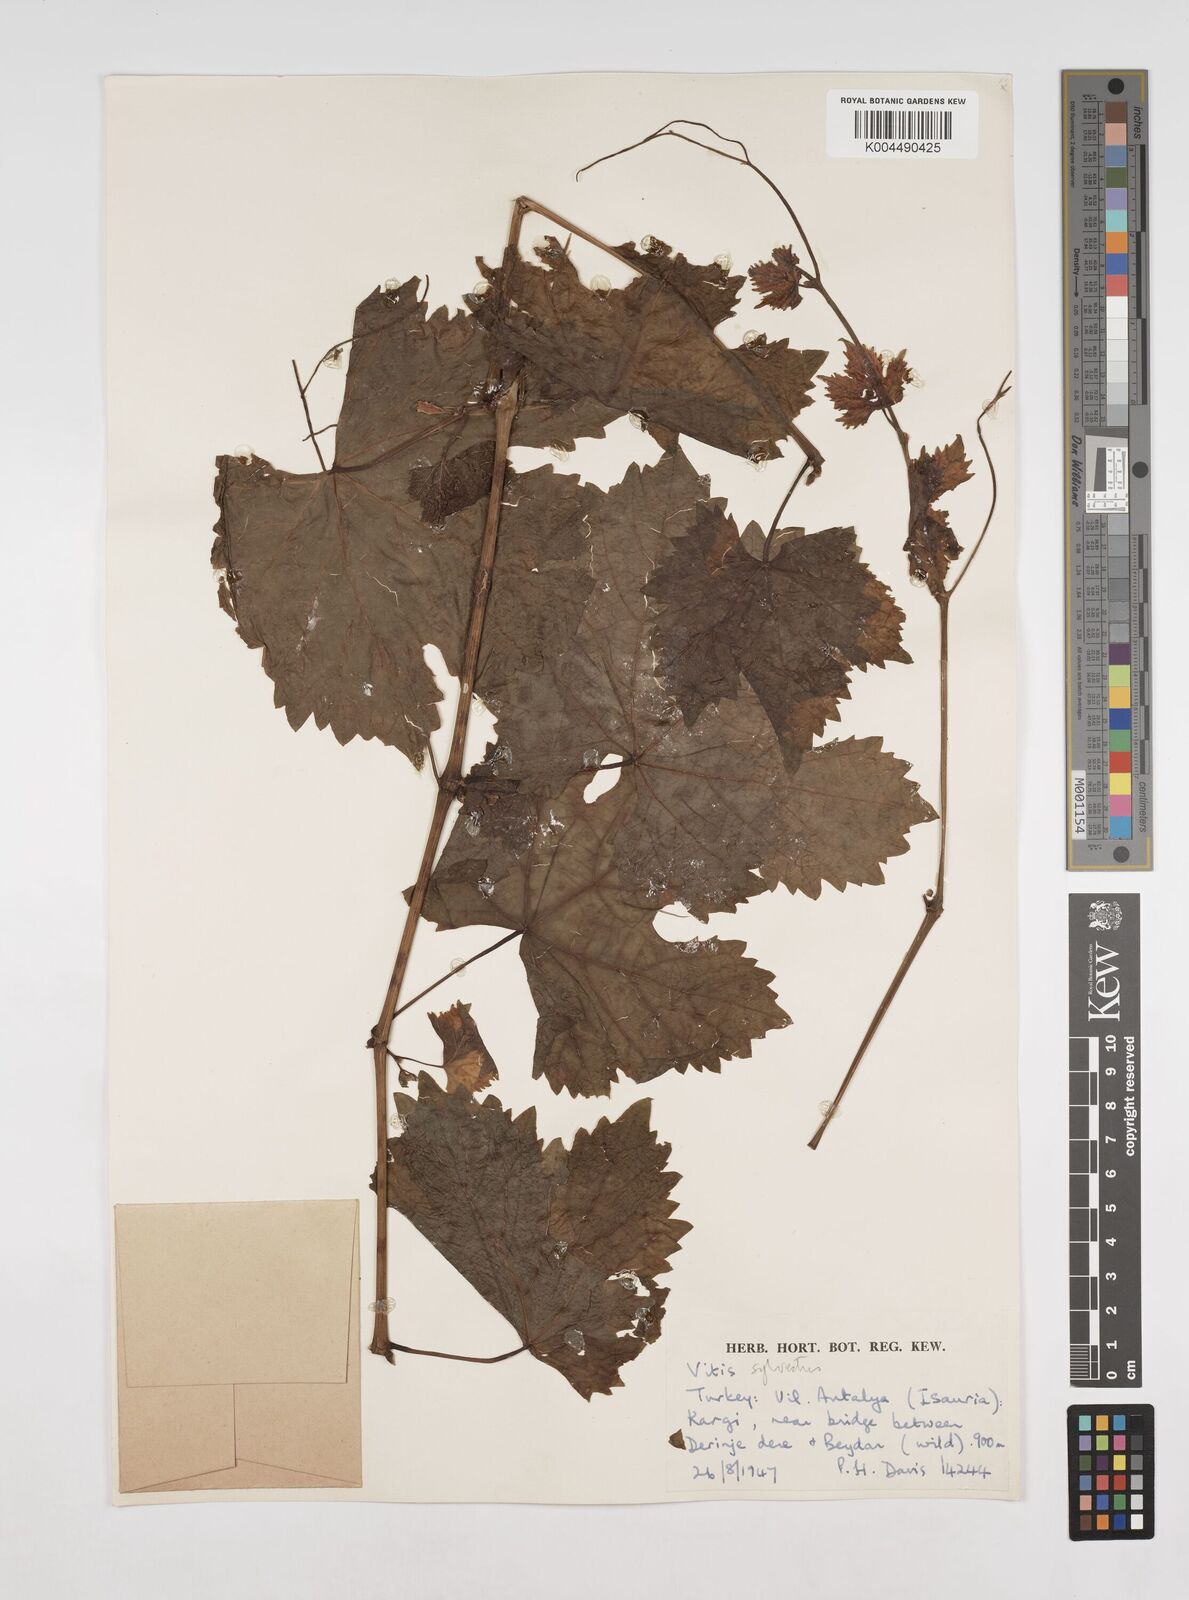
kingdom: Plantae
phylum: Tracheophyta
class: Magnoliopsida
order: Vitales
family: Vitaceae
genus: Vitis
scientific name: Vitis gmelinii
